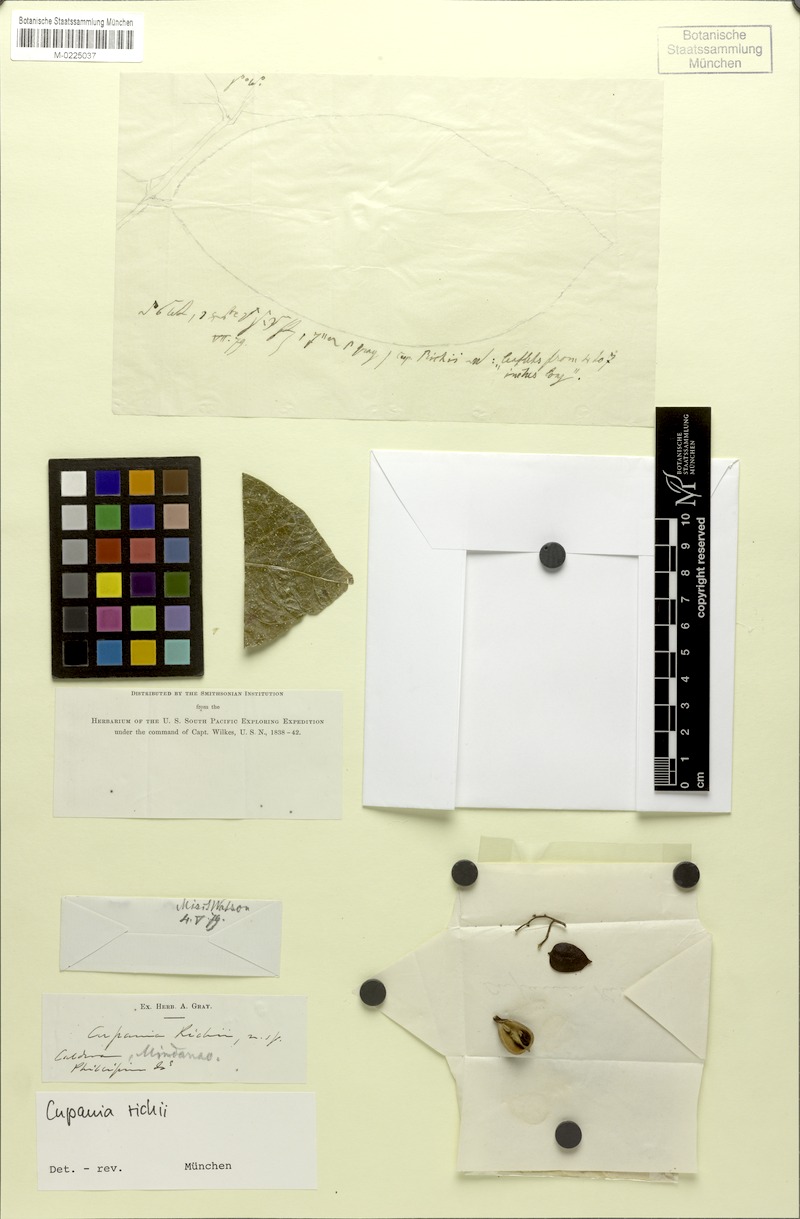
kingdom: Plantae
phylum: Tracheophyta
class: Magnoliopsida
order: Sapindales
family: Sapindaceae
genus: Lepidopetalum
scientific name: Lepidopetalum perrottetii
